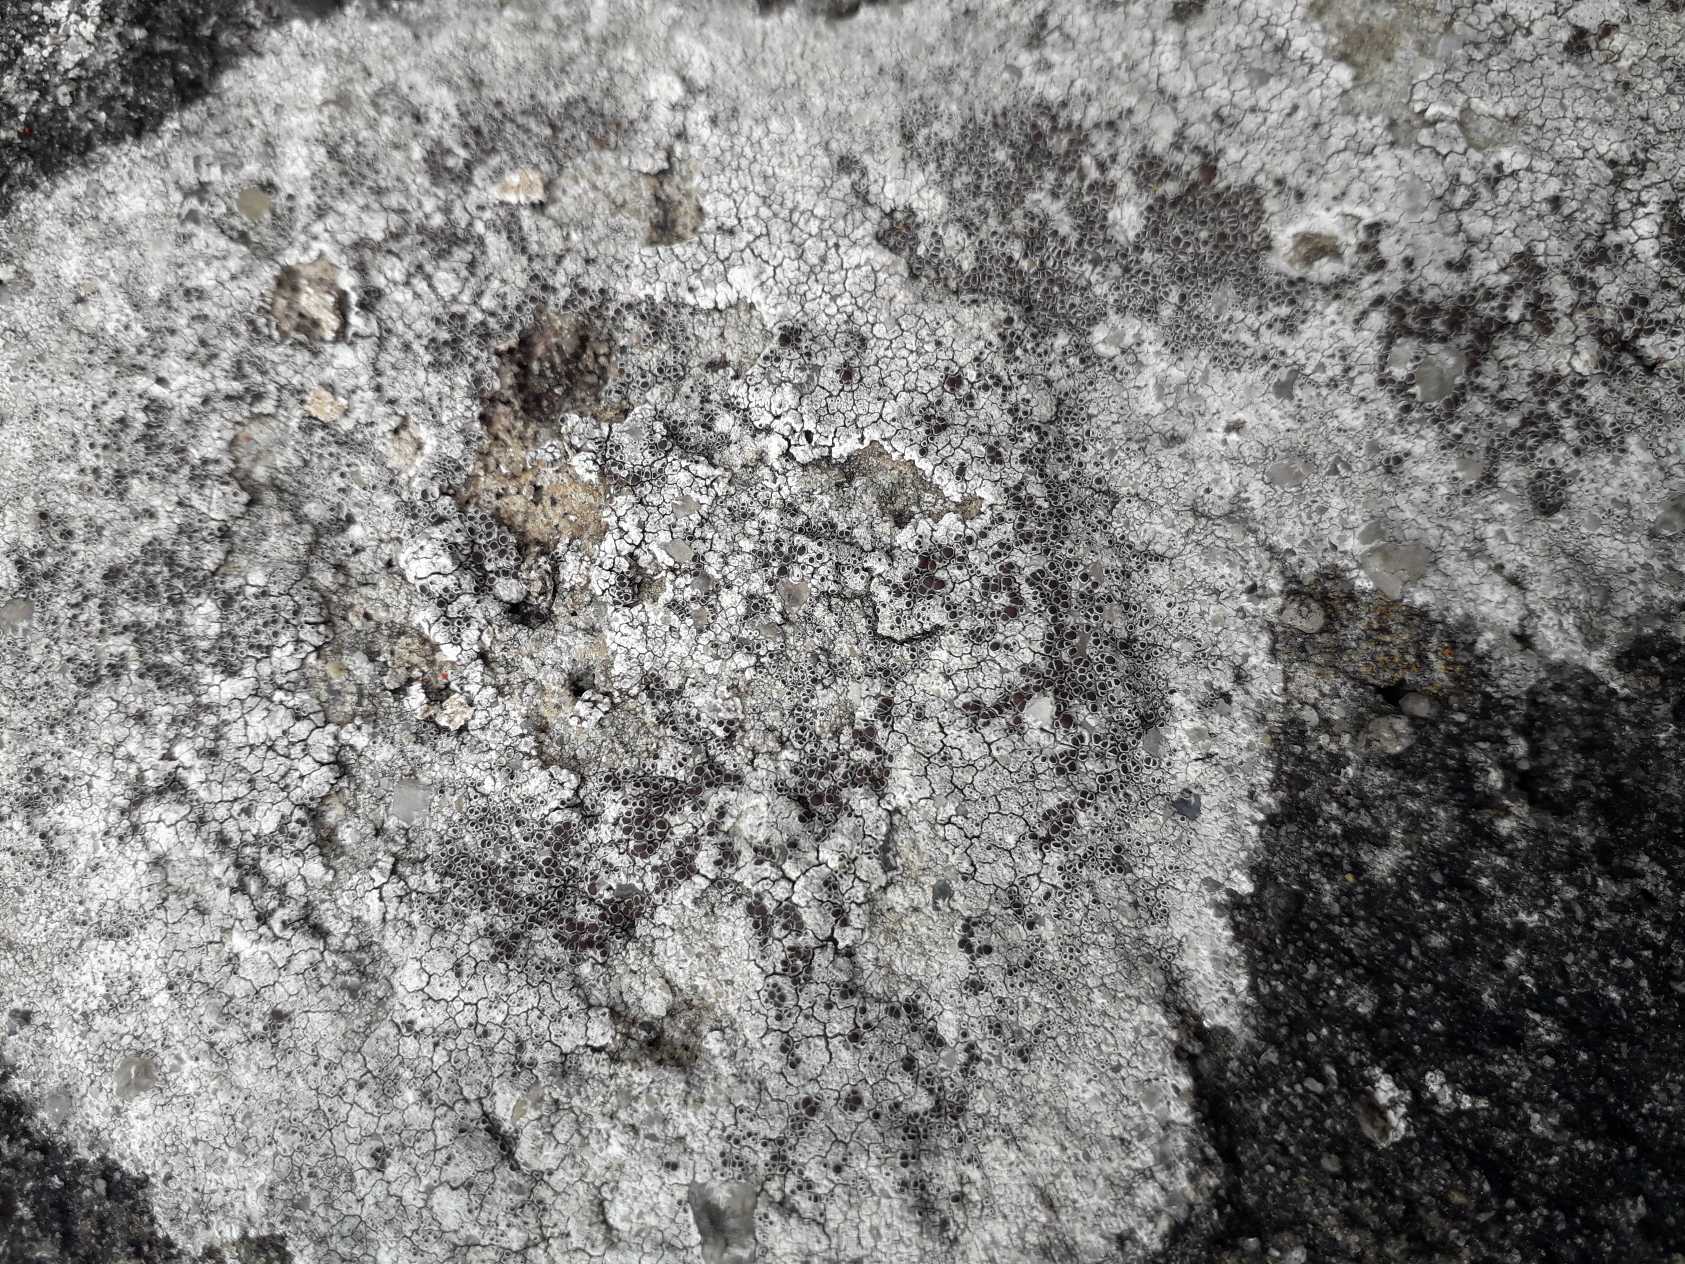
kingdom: Fungi
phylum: Ascomycota
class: Lecanoromycetes
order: Lecanorales
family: Lecanoraceae
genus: Lecanora
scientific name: Lecanora campestris
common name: Mur-kantskivelav
